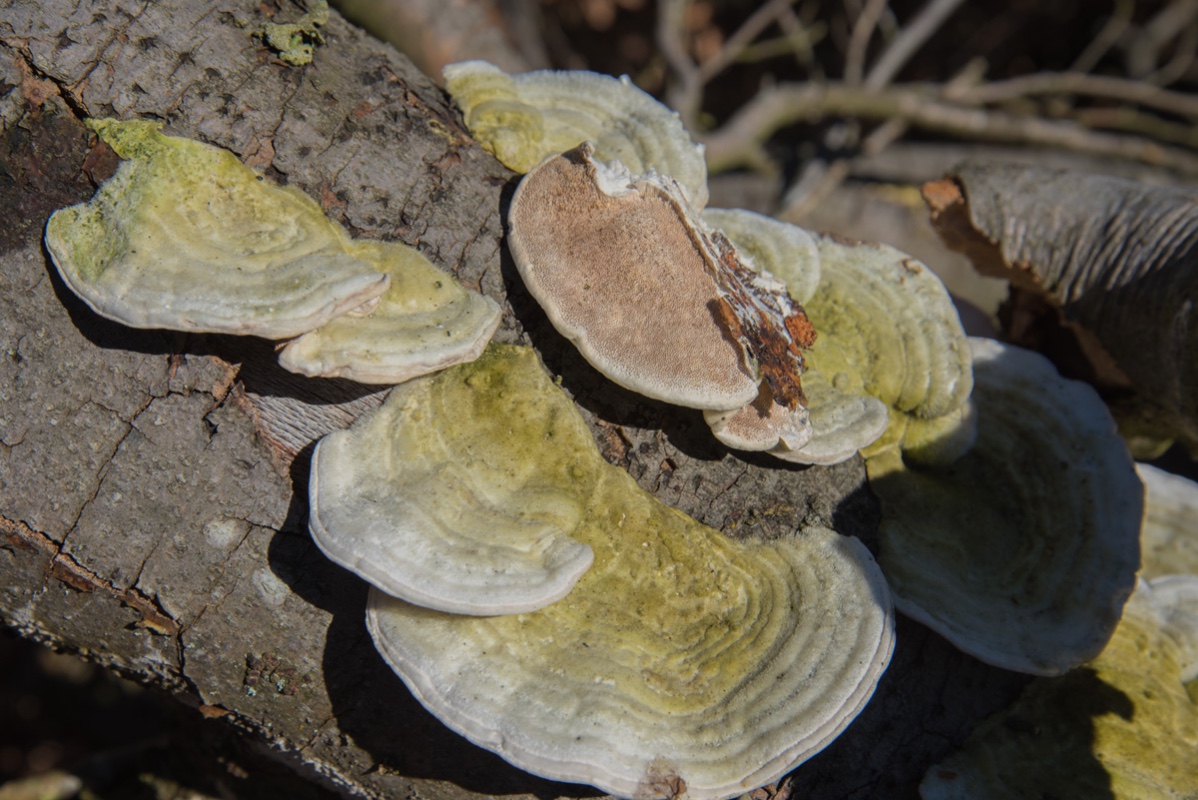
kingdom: Fungi
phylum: Basidiomycota
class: Agaricomycetes
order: Polyporales
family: Polyporaceae
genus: Trametes
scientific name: Trametes hirsuta
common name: håret læderporesvamp
